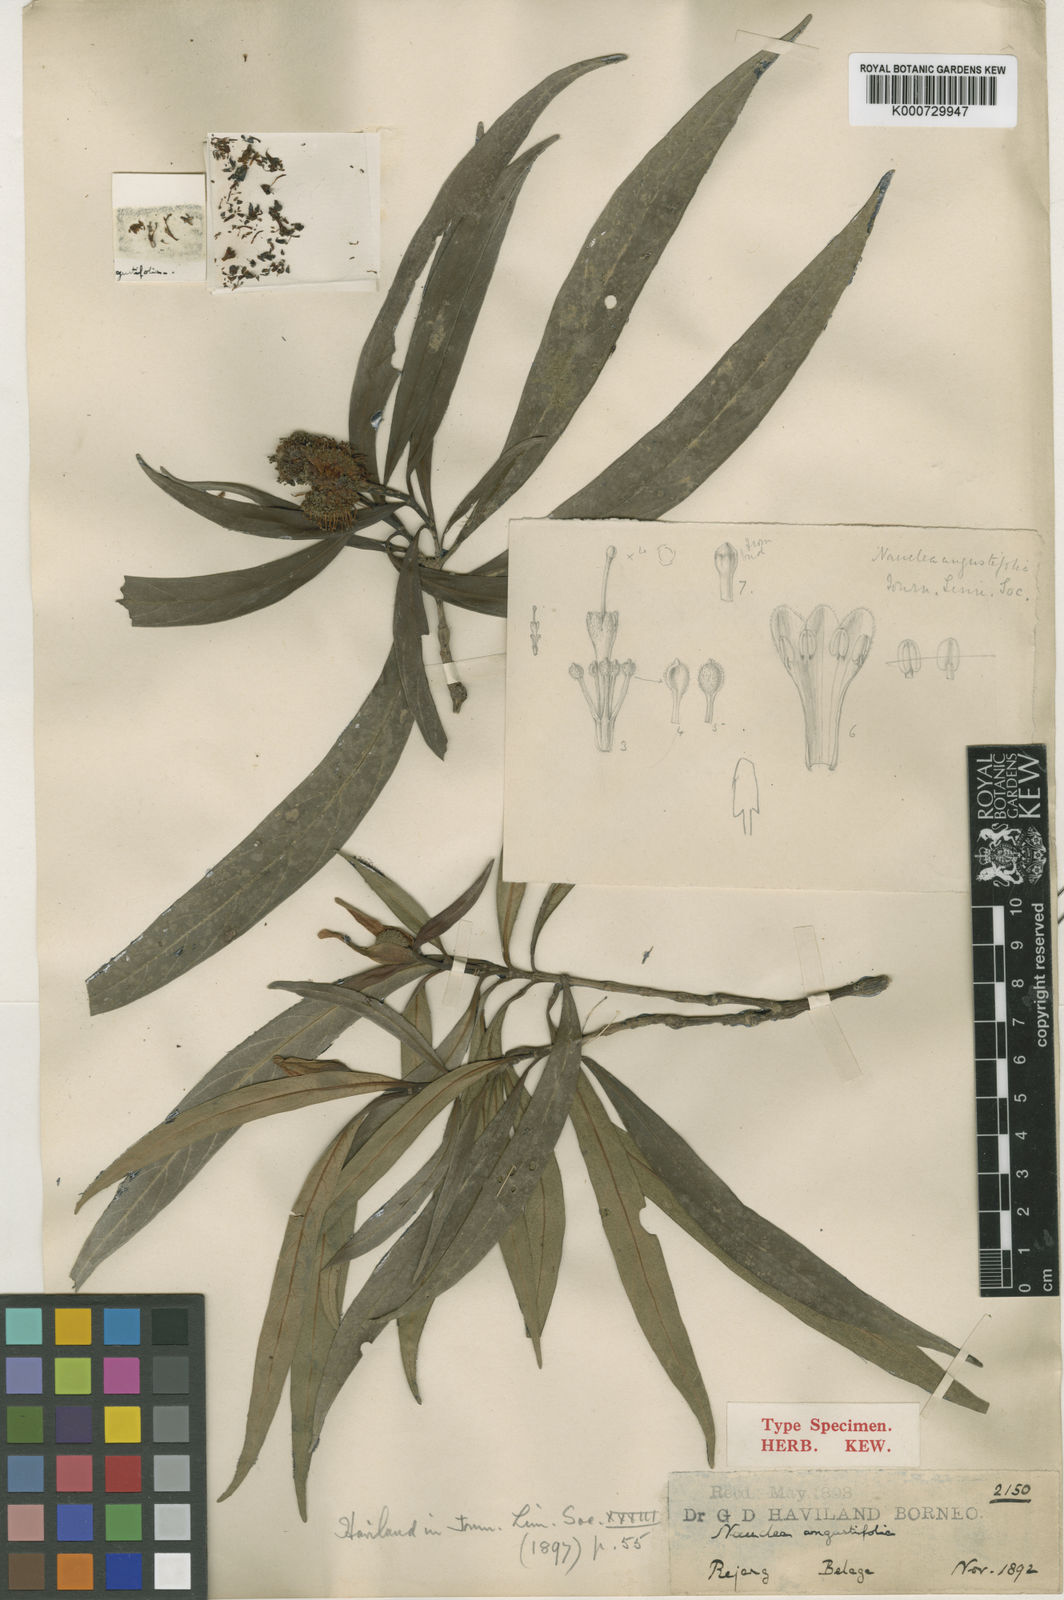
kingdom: Plantae
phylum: Tracheophyta
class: Magnoliopsida
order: Gentianales
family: Rubiaceae
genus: Neonauclea
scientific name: Neonauclea angustifolia
